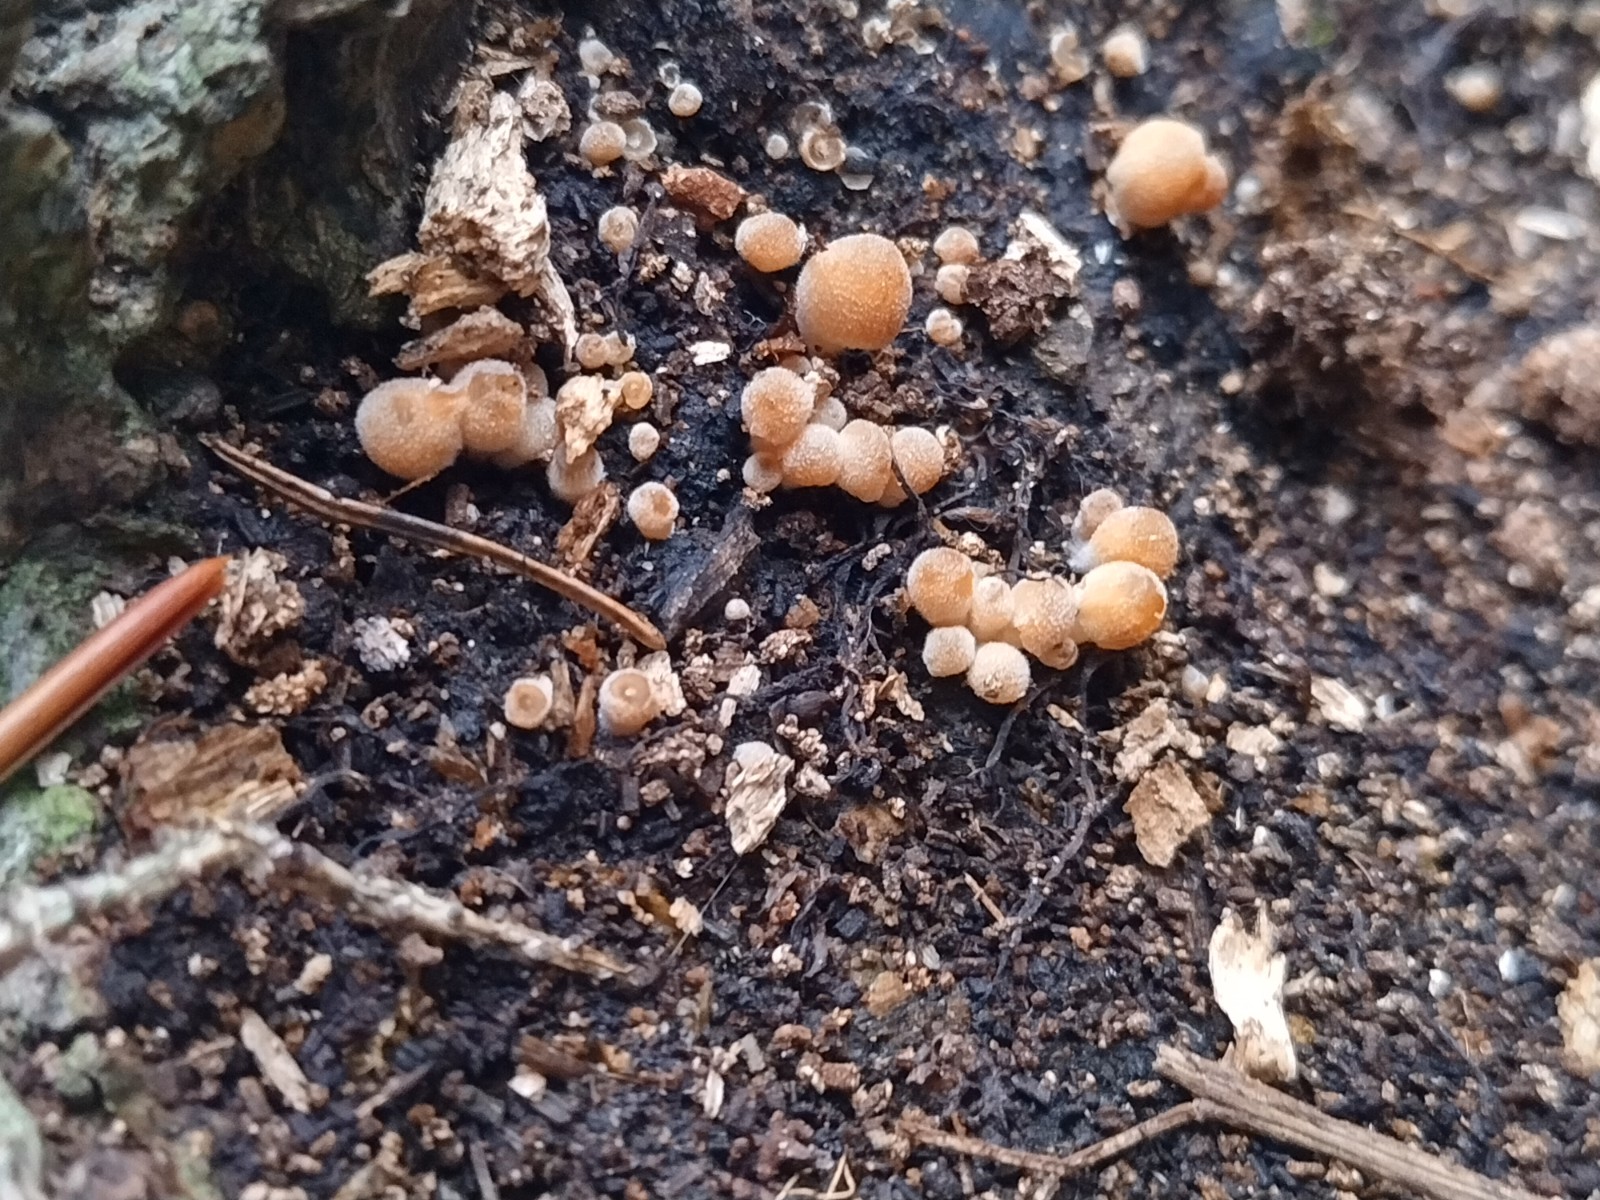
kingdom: Fungi
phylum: Basidiomycota
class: Agaricomycetes
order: Agaricales
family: Psathyrellaceae
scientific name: Psathyrellaceae
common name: mørkhatfamilien
